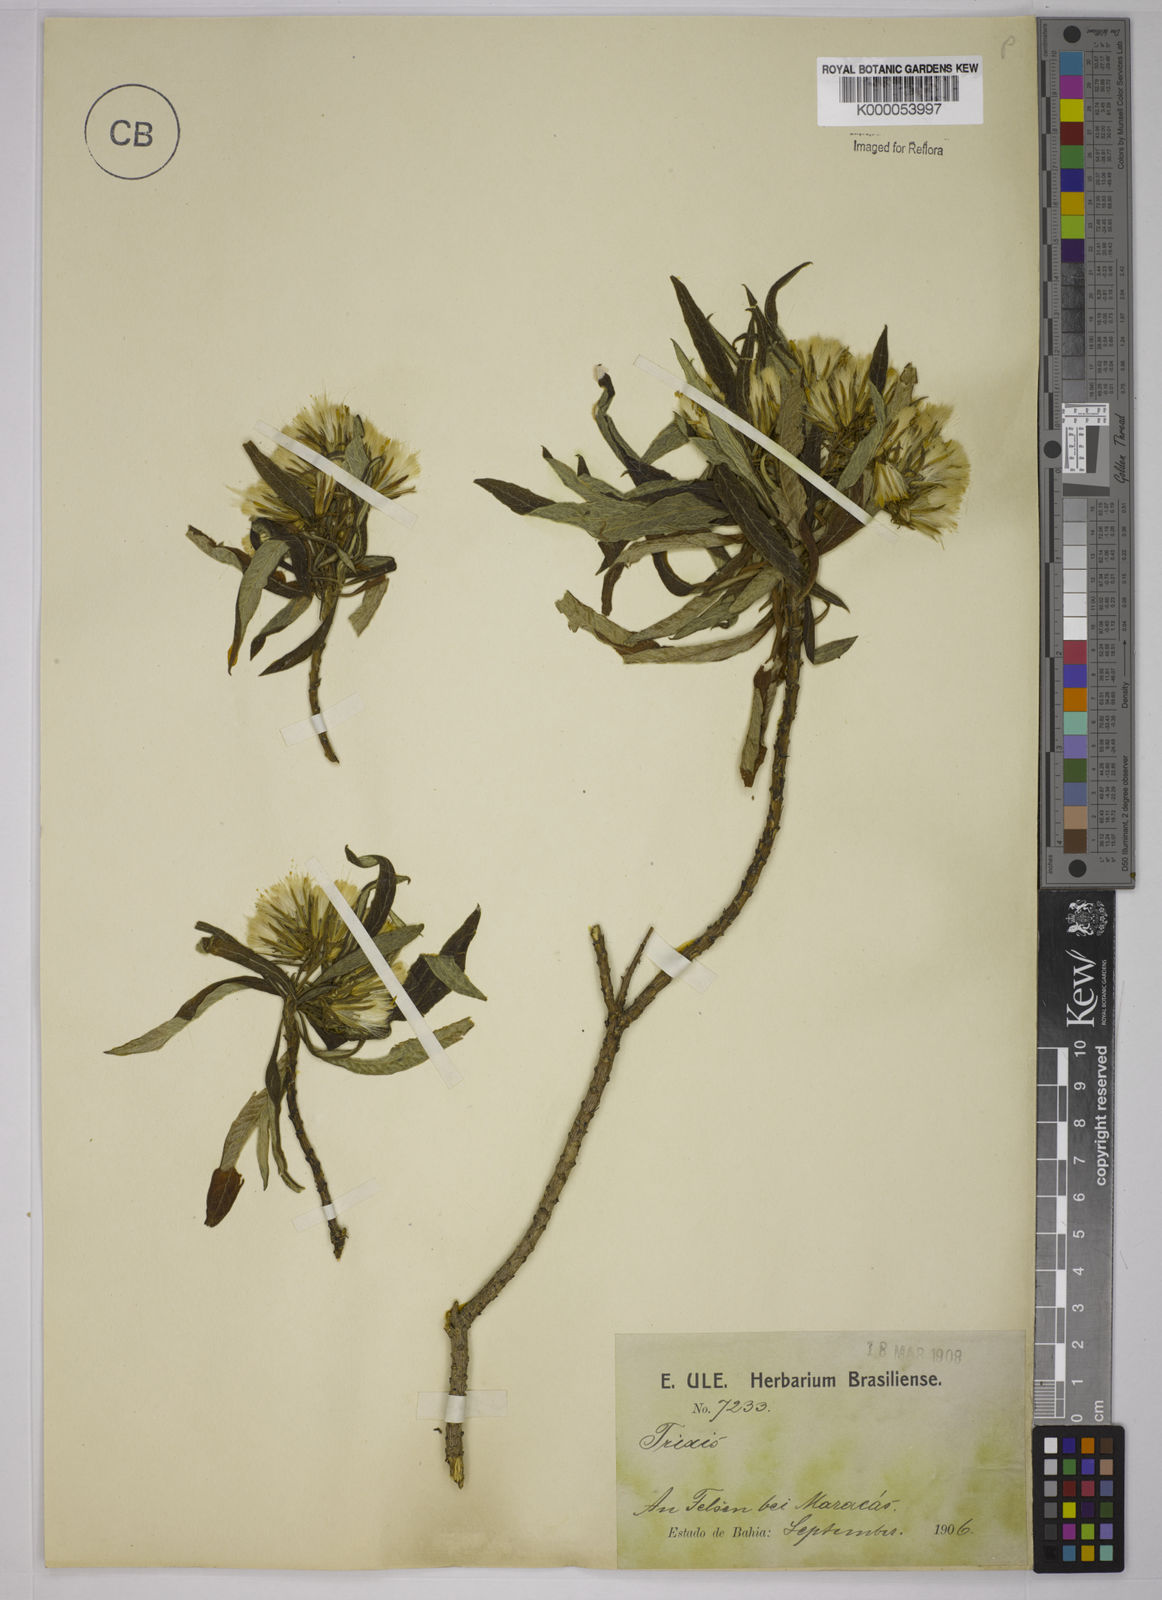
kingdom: Plantae
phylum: Tracheophyta
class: Magnoliopsida
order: Asterales
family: Asteraceae
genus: Trixis
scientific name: Trixis vauthieri
